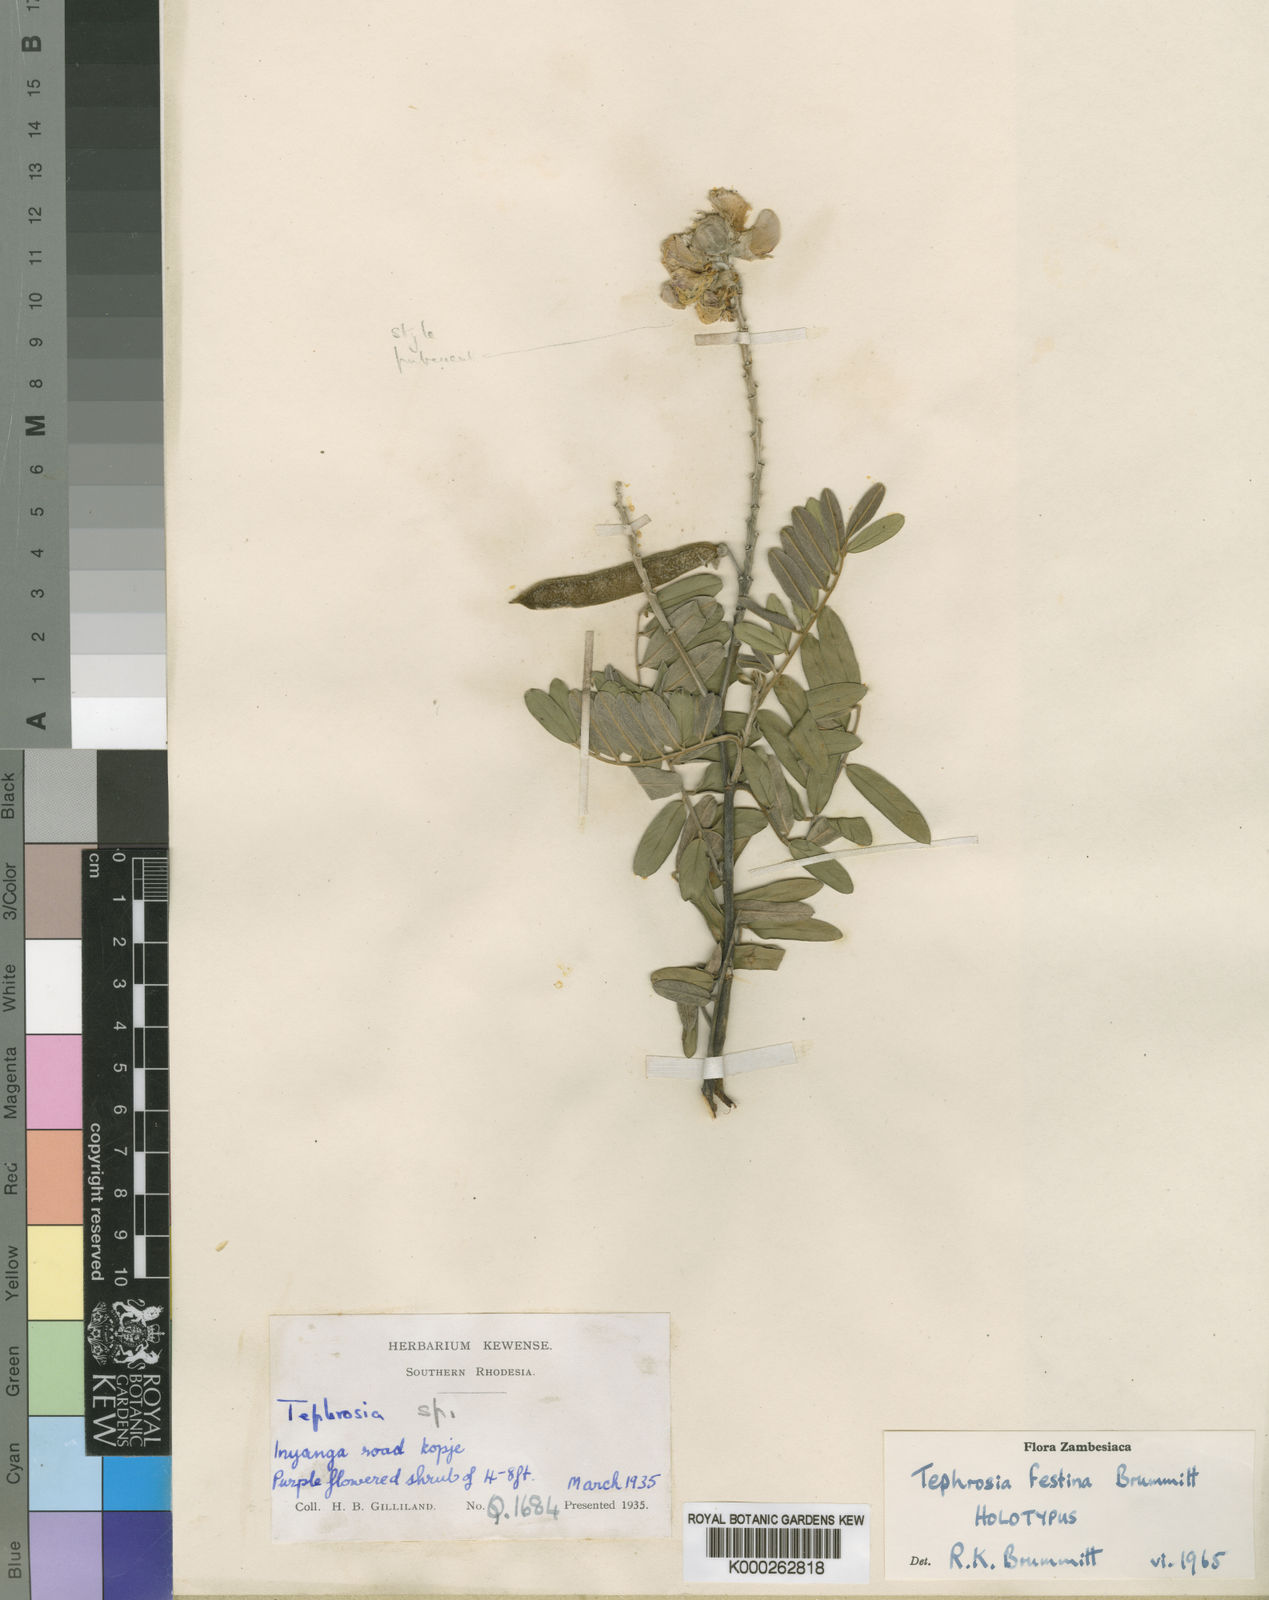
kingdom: Plantae
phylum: Tracheophyta
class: Magnoliopsida
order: Fabales
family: Fabaceae
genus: Tephrosia
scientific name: Tephrosia festina
